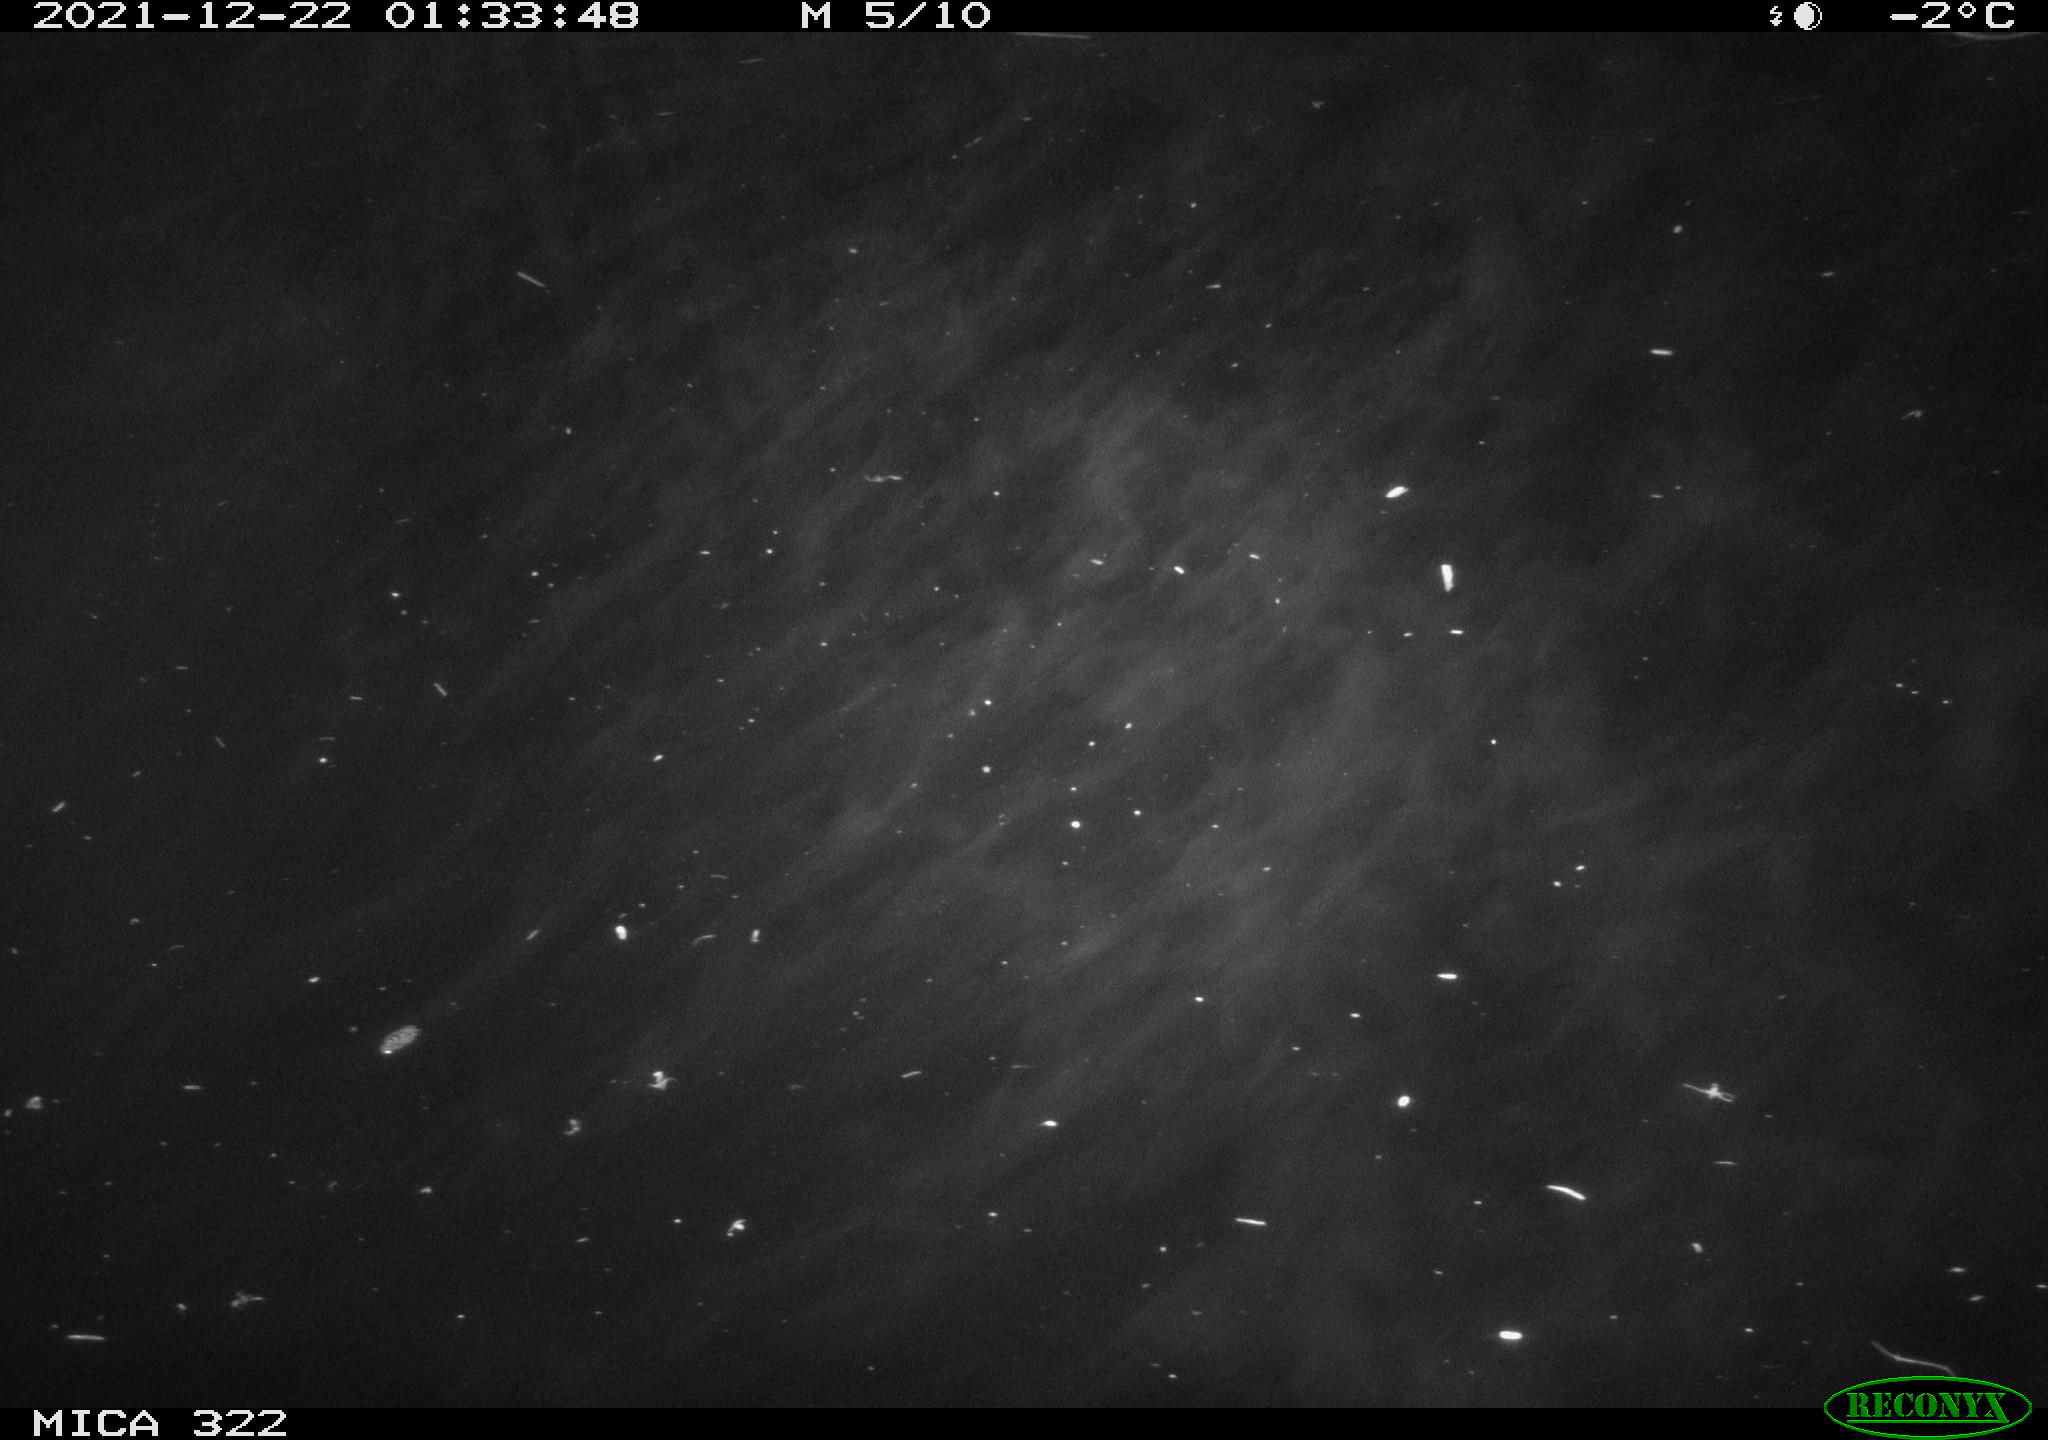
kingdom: Animalia
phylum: Chordata
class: Mammalia
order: Rodentia
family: Muridae
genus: Rattus
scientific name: Rattus norvegicus
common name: Brown rat
